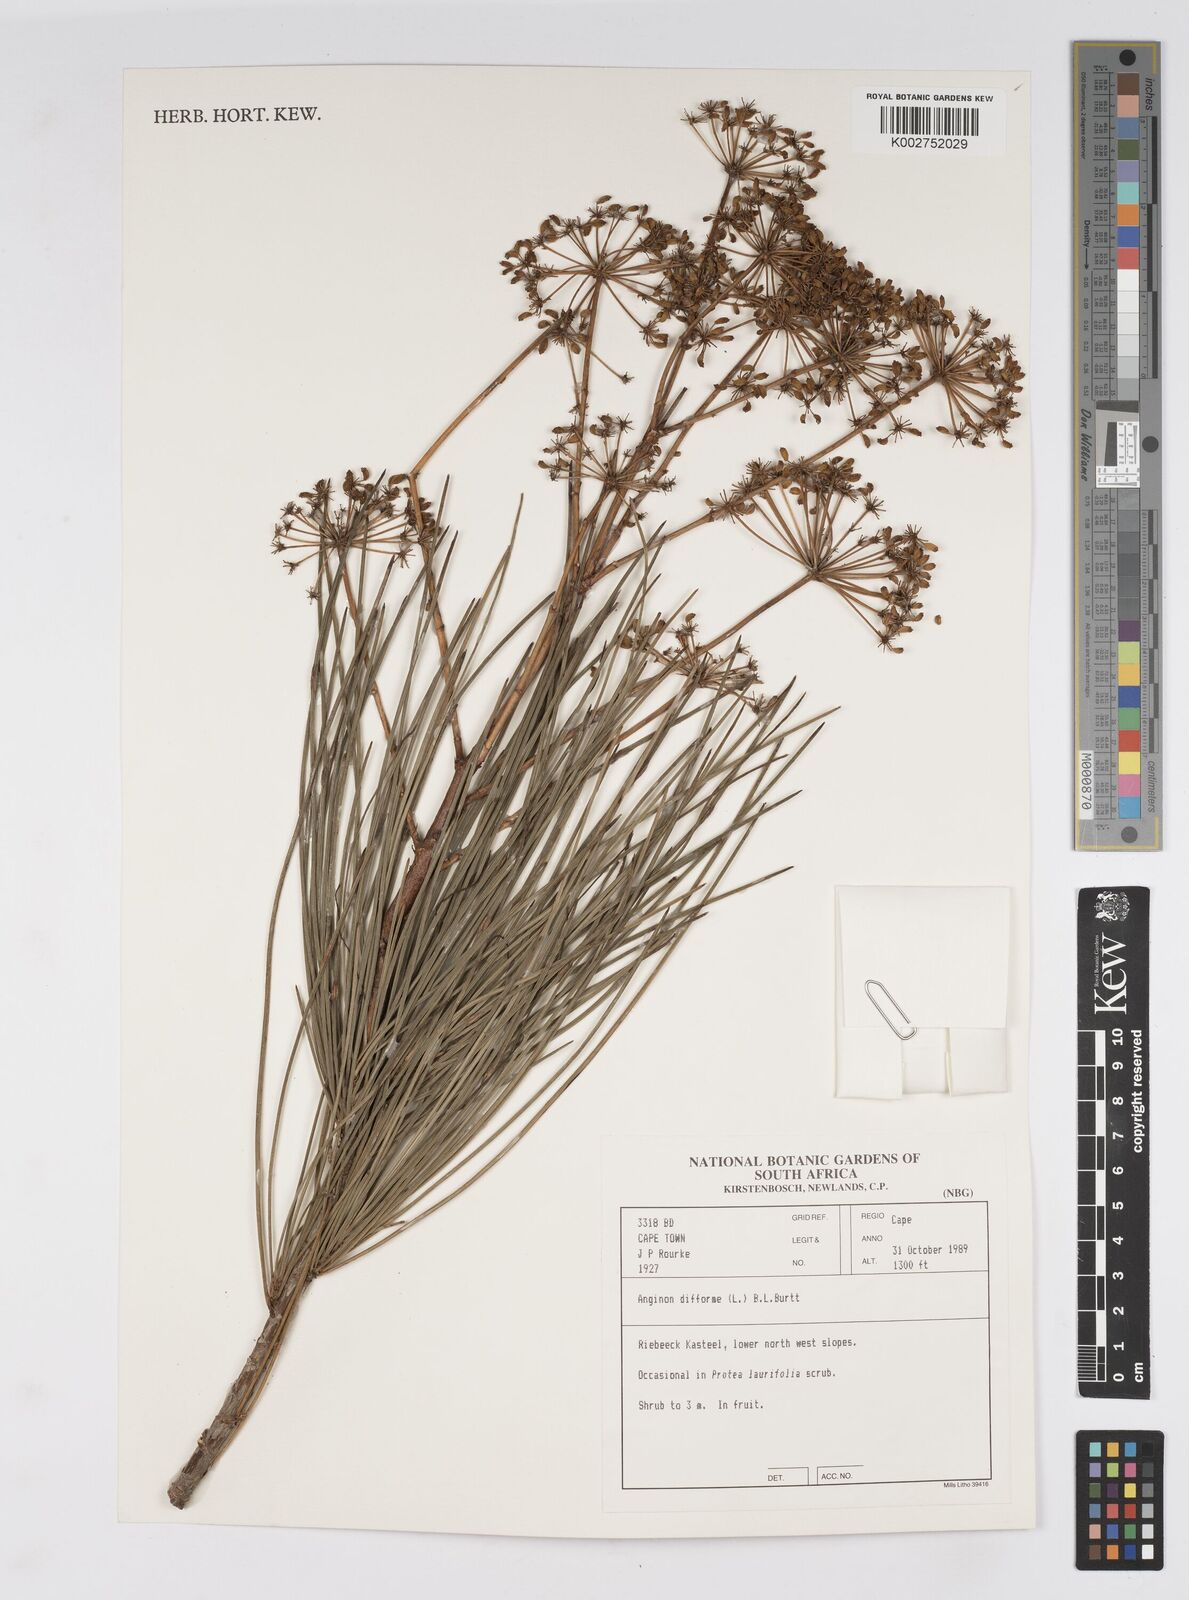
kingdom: Plantae
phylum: Tracheophyta
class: Magnoliopsida
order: Apiales
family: Apiaceae
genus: Anginon
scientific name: Anginon difforme
